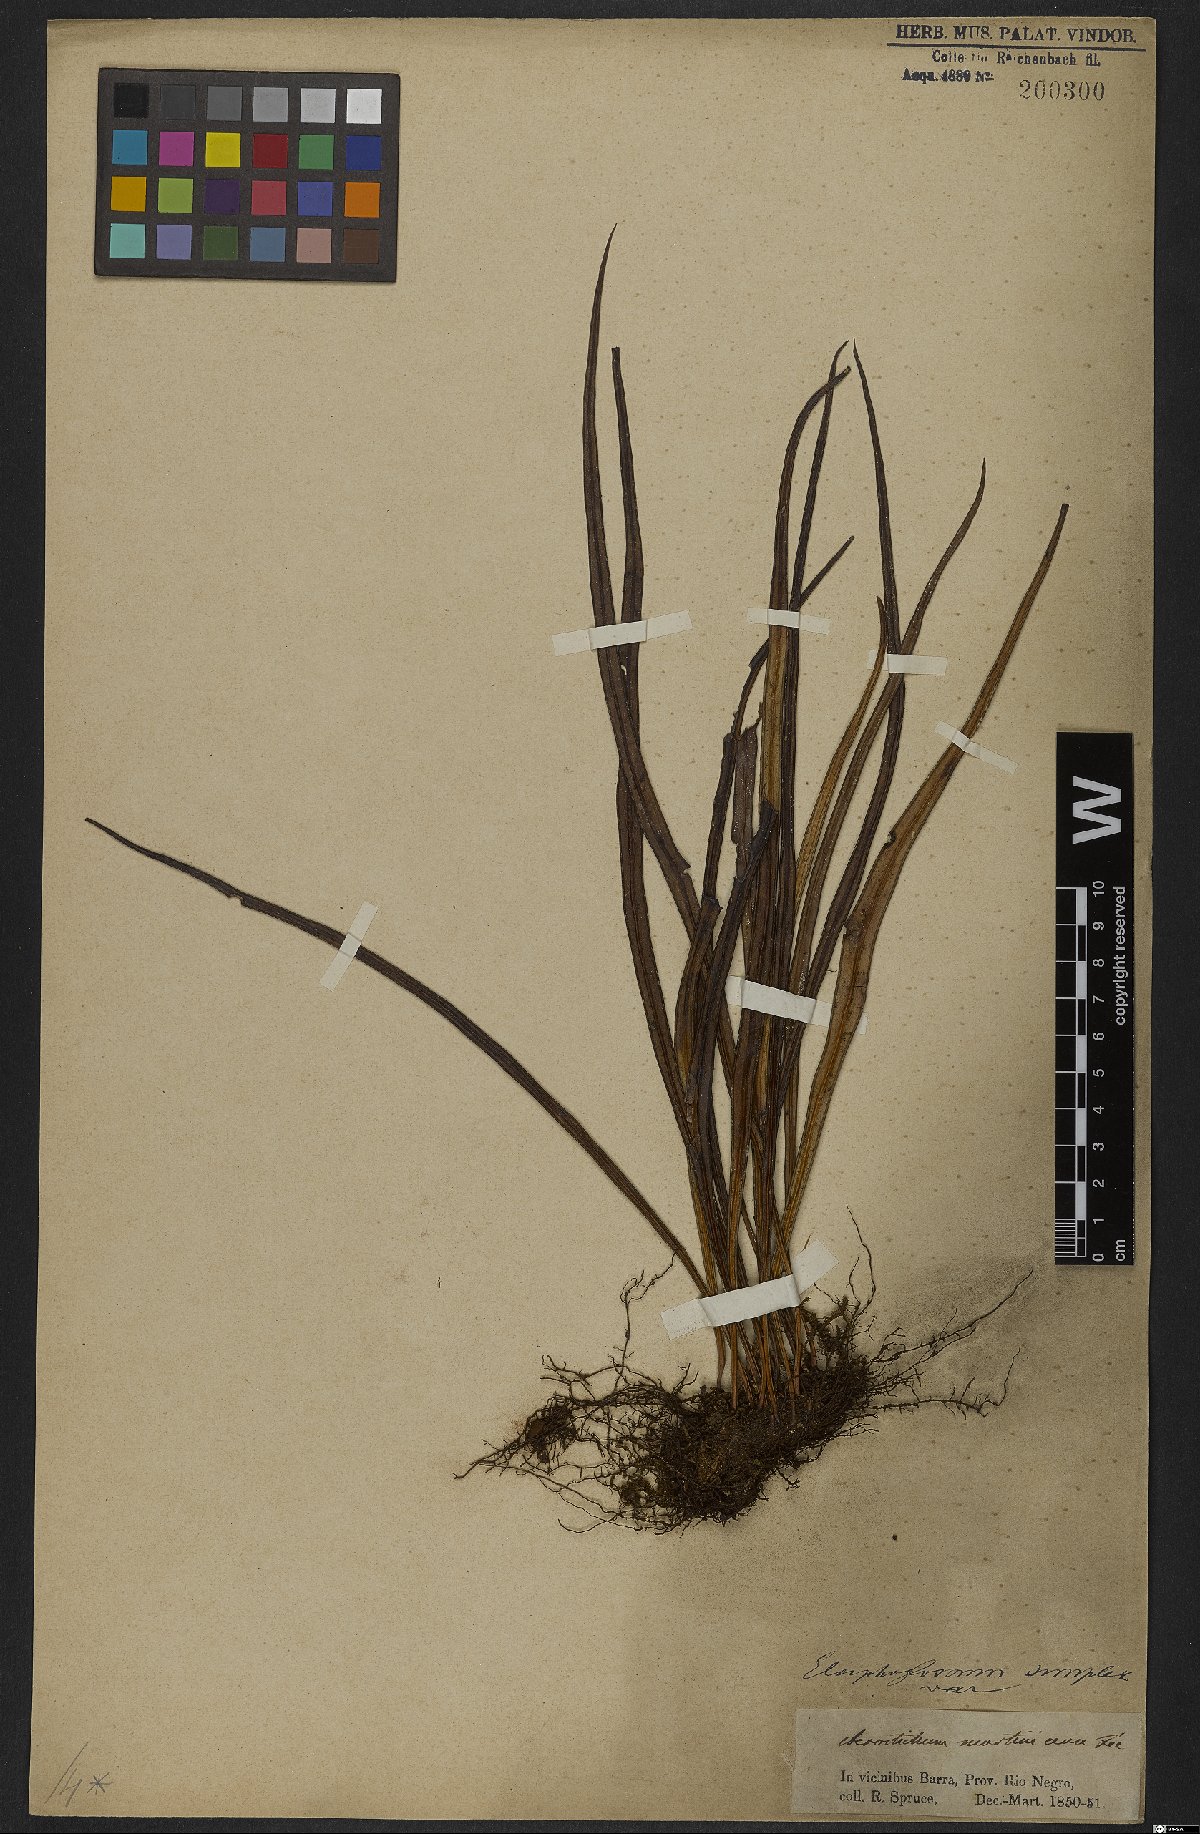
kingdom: Plantae
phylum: Tracheophyta
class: Polypodiopsida
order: Polypodiales
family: Dryopteridaceae
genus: Elaphoglossum
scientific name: Elaphoglossum simplex
